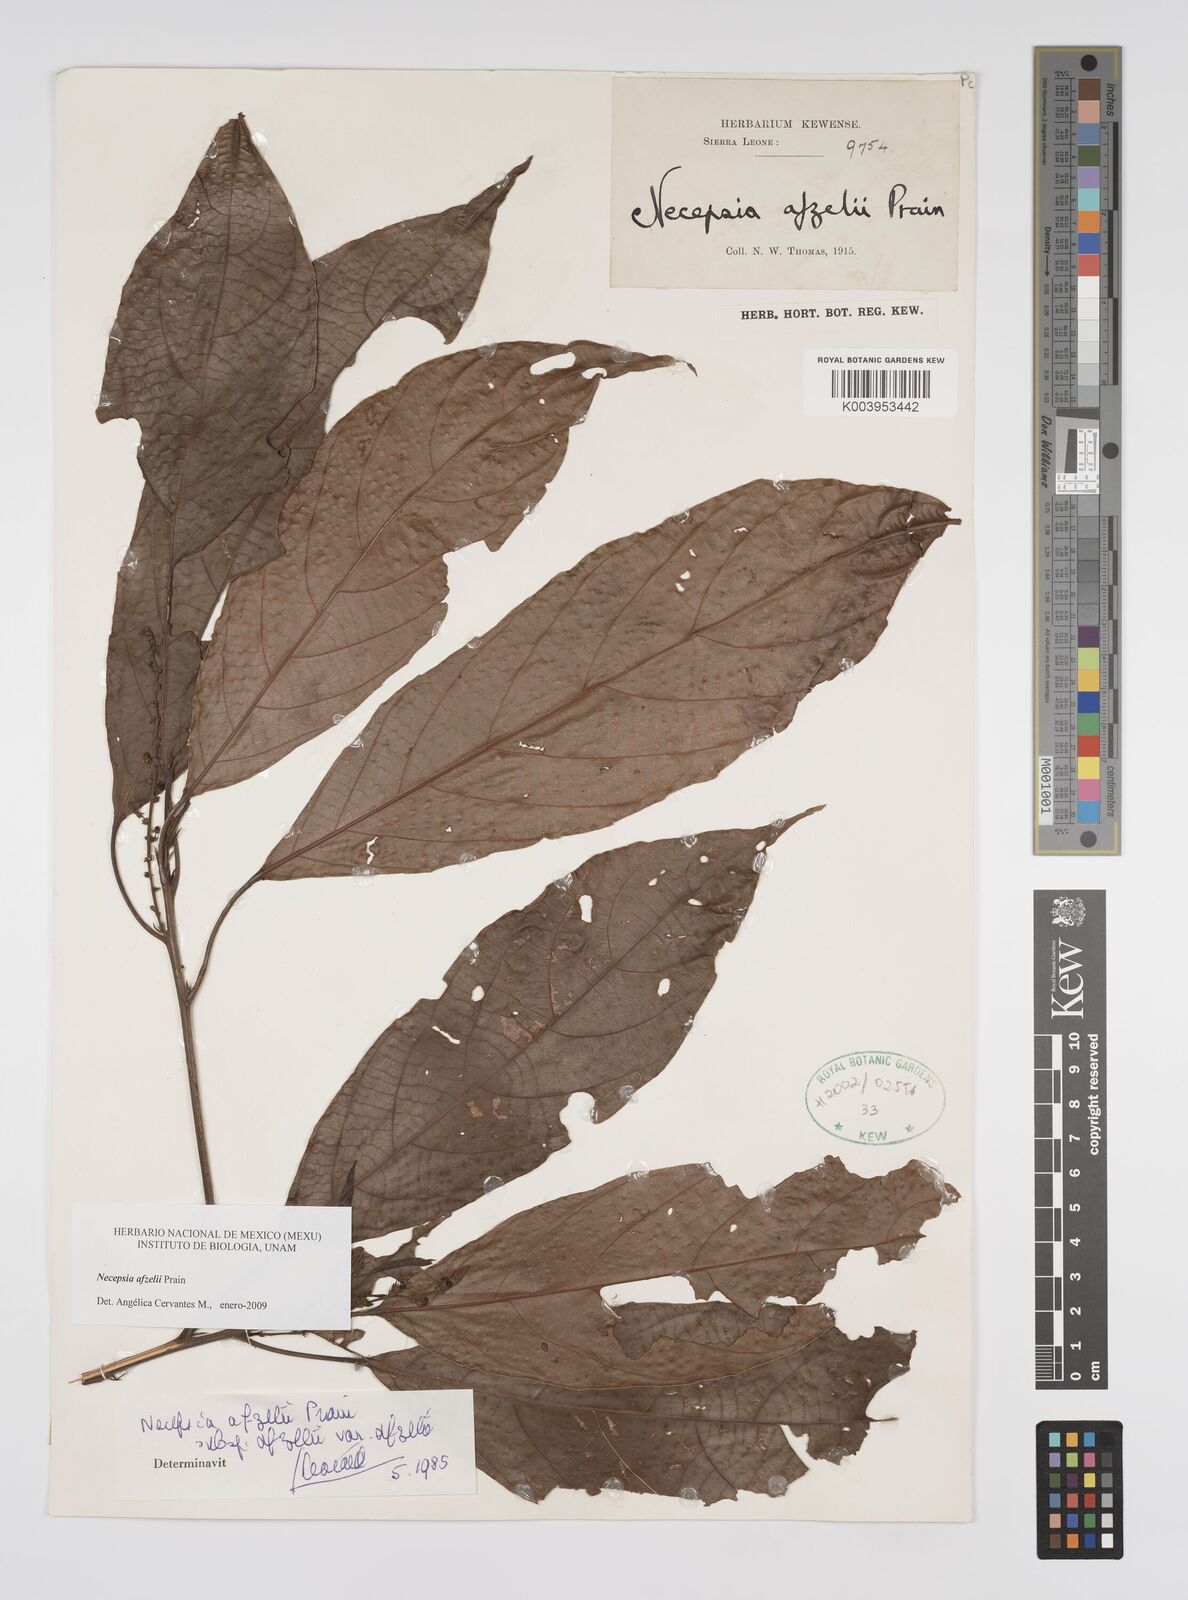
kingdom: Plantae
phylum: Tracheophyta
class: Magnoliopsida
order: Malpighiales
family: Euphorbiaceae
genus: Necepsia
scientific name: Necepsia afzelii
